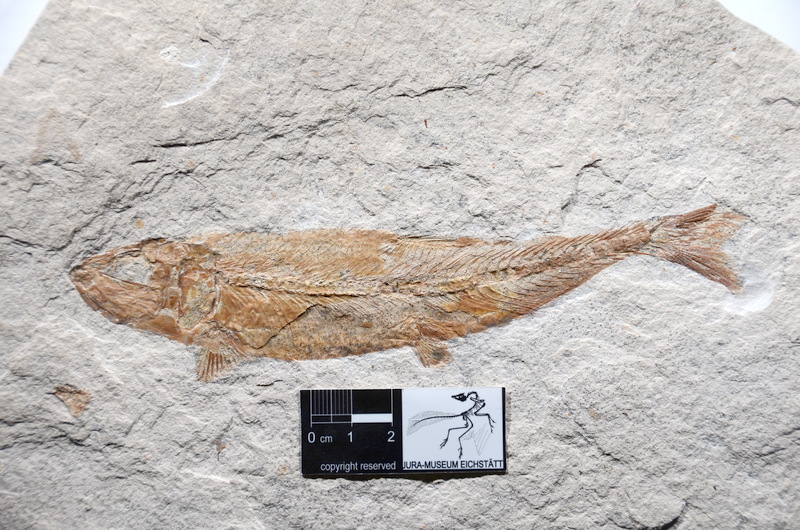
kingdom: Animalia
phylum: Chordata
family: Ascalaboidae
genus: Tharsis
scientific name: Tharsis dubius
